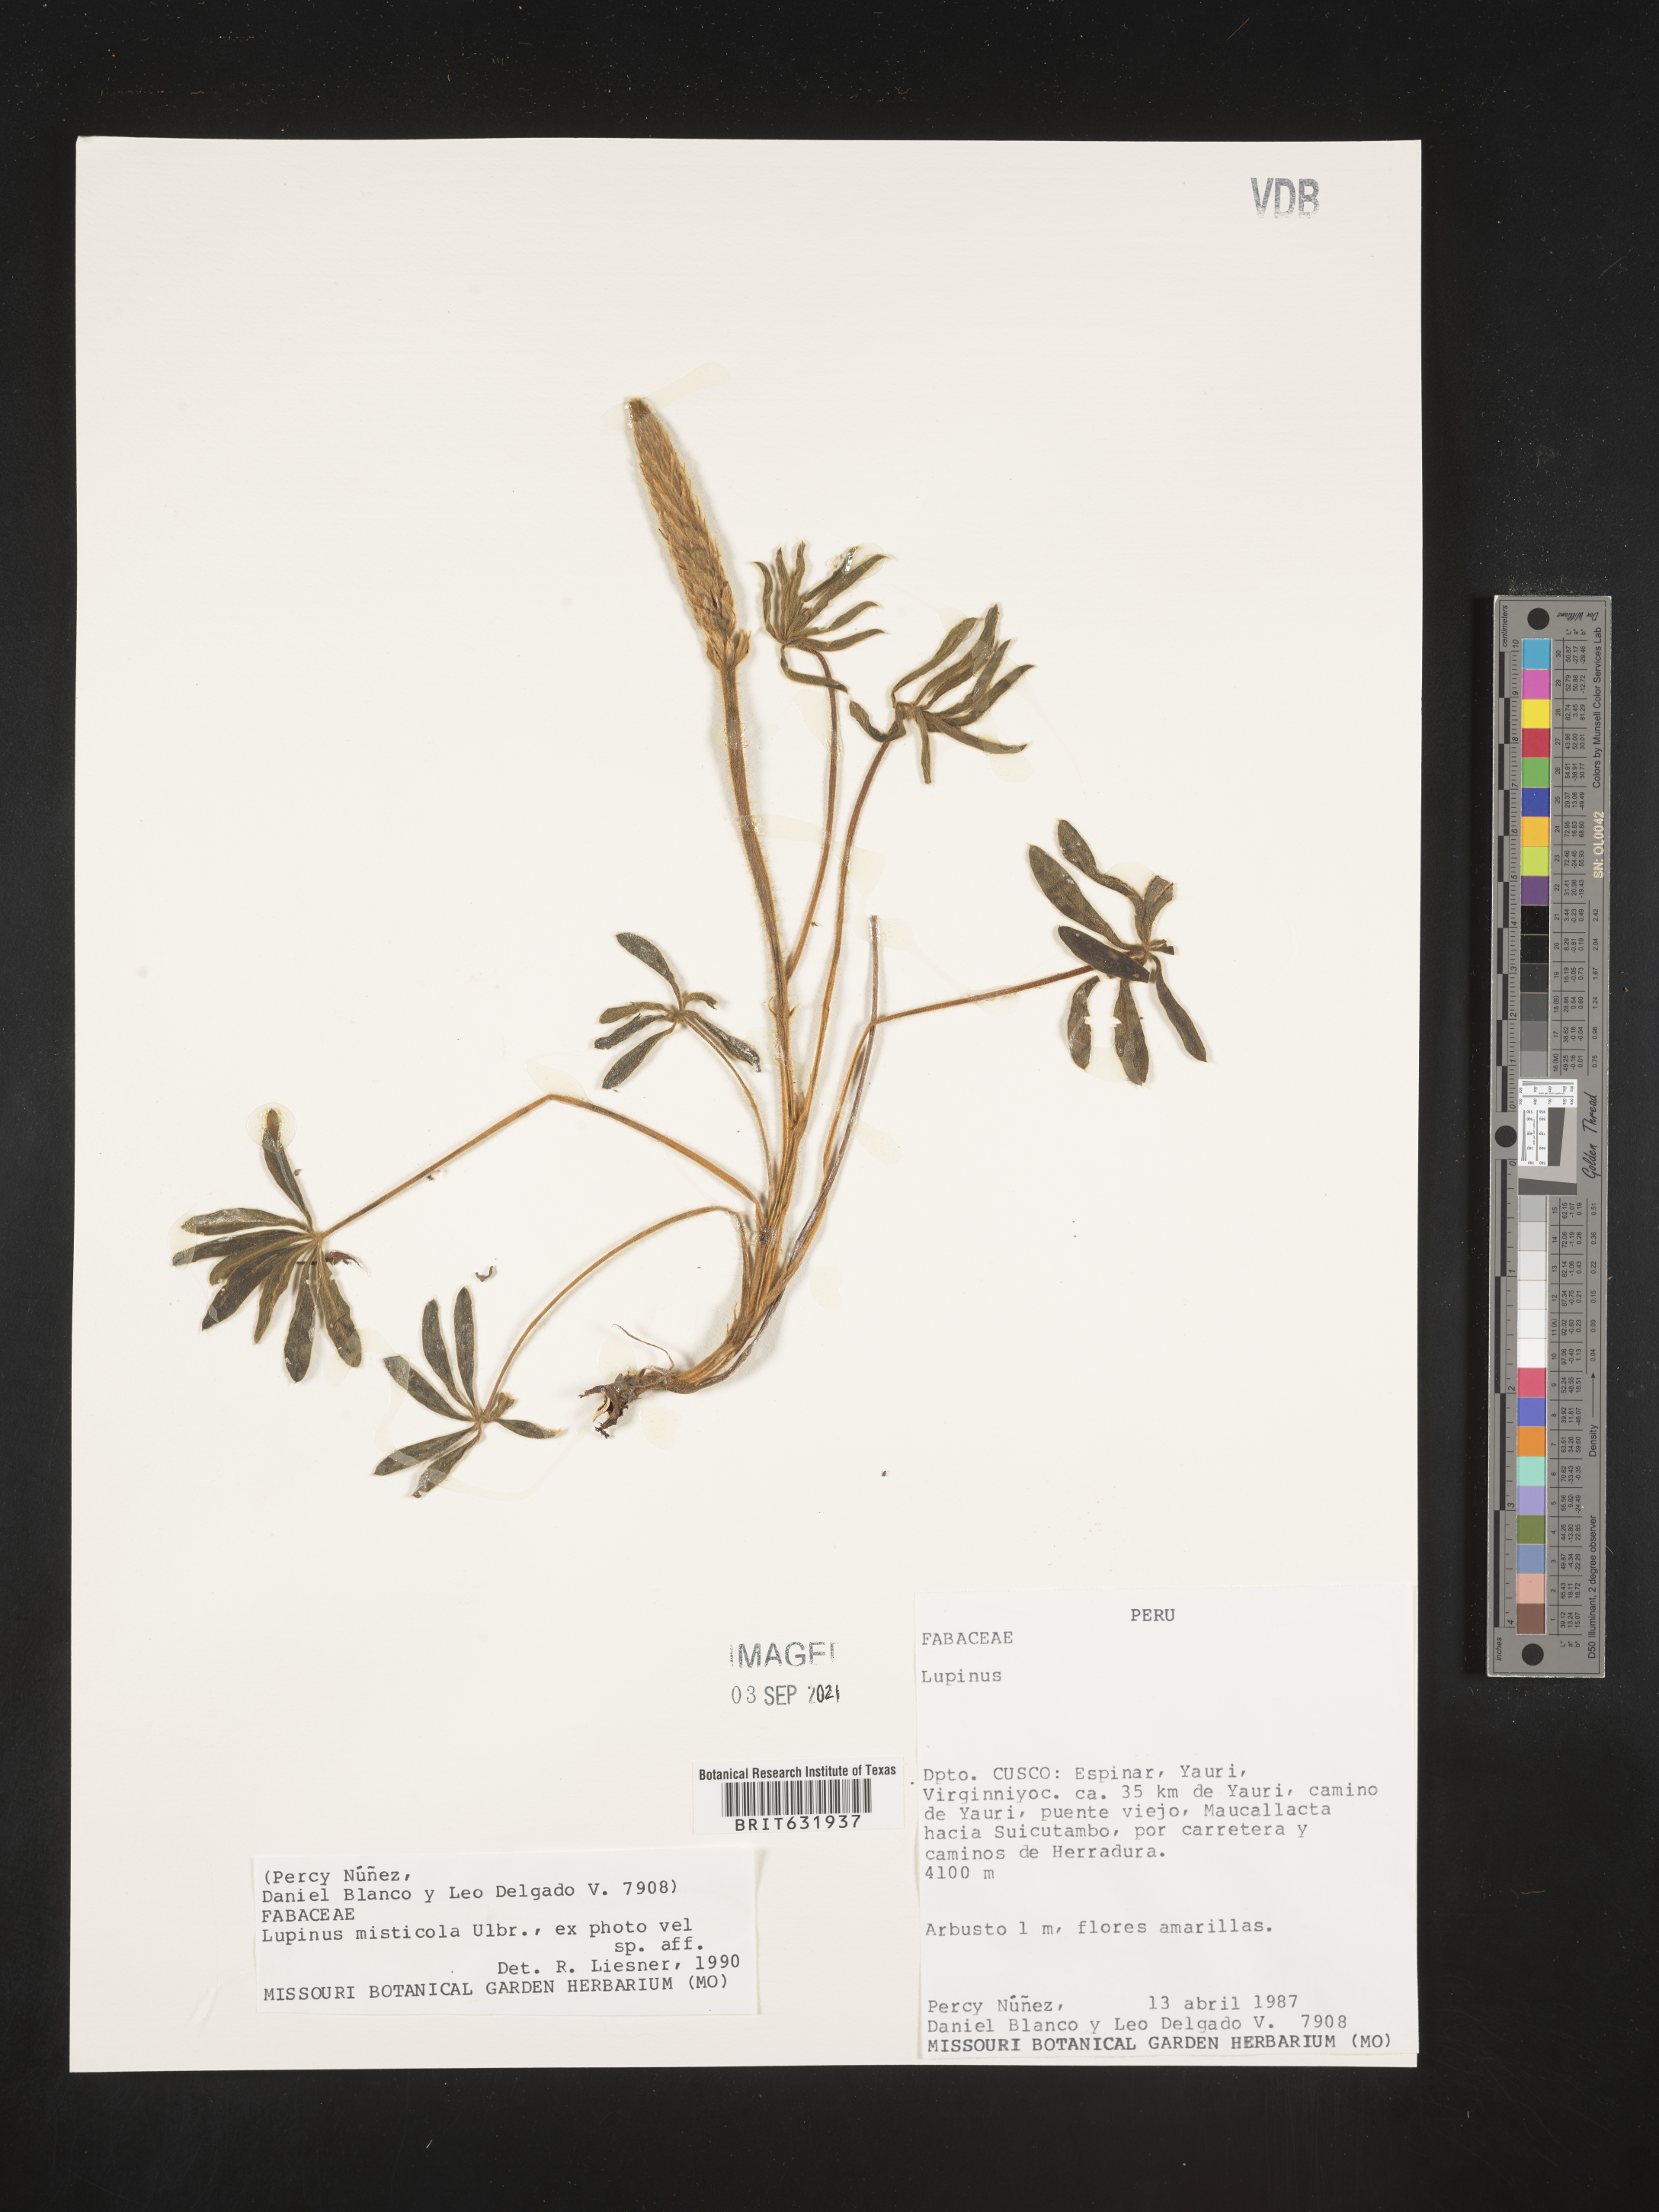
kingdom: Plantae
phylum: Tracheophyta
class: Magnoliopsida
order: Fabales
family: Fabaceae
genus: Lupinus
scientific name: Lupinus
